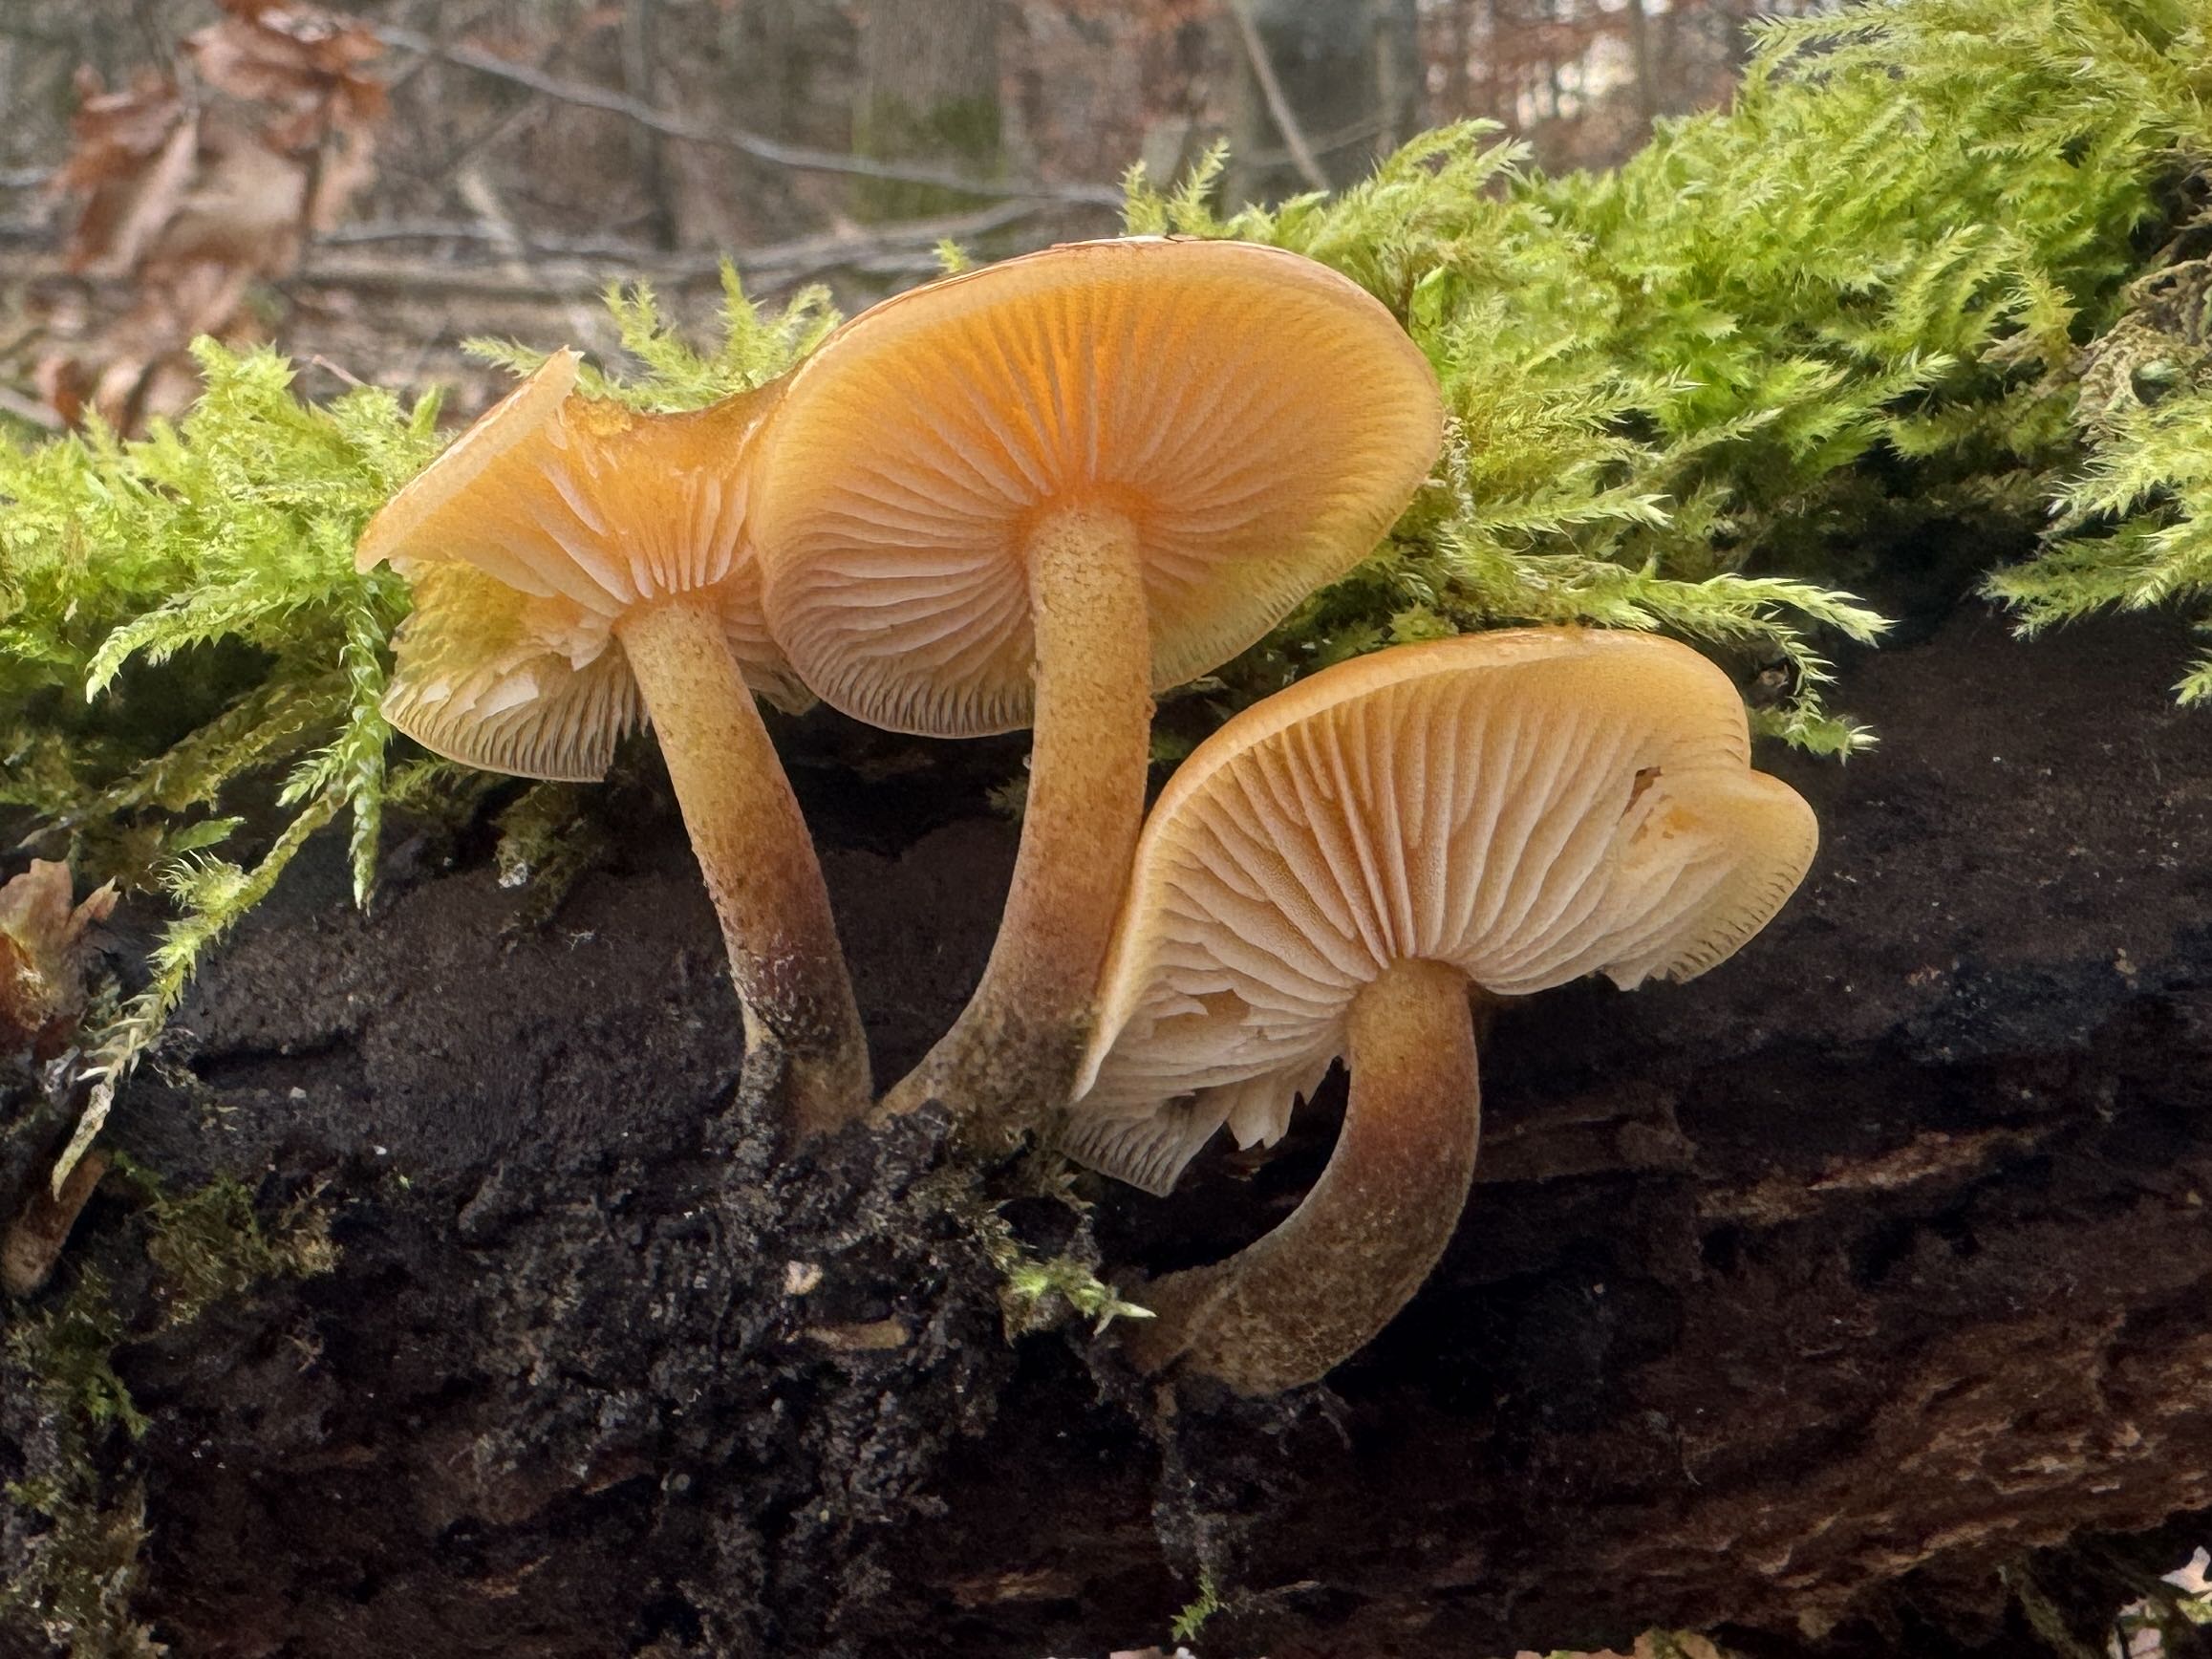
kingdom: Fungi
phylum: Basidiomycota
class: Agaricomycetes
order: Agaricales
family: Physalacriaceae
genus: Flammulina
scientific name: Flammulina velutipes
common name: gul fløjlsfod
